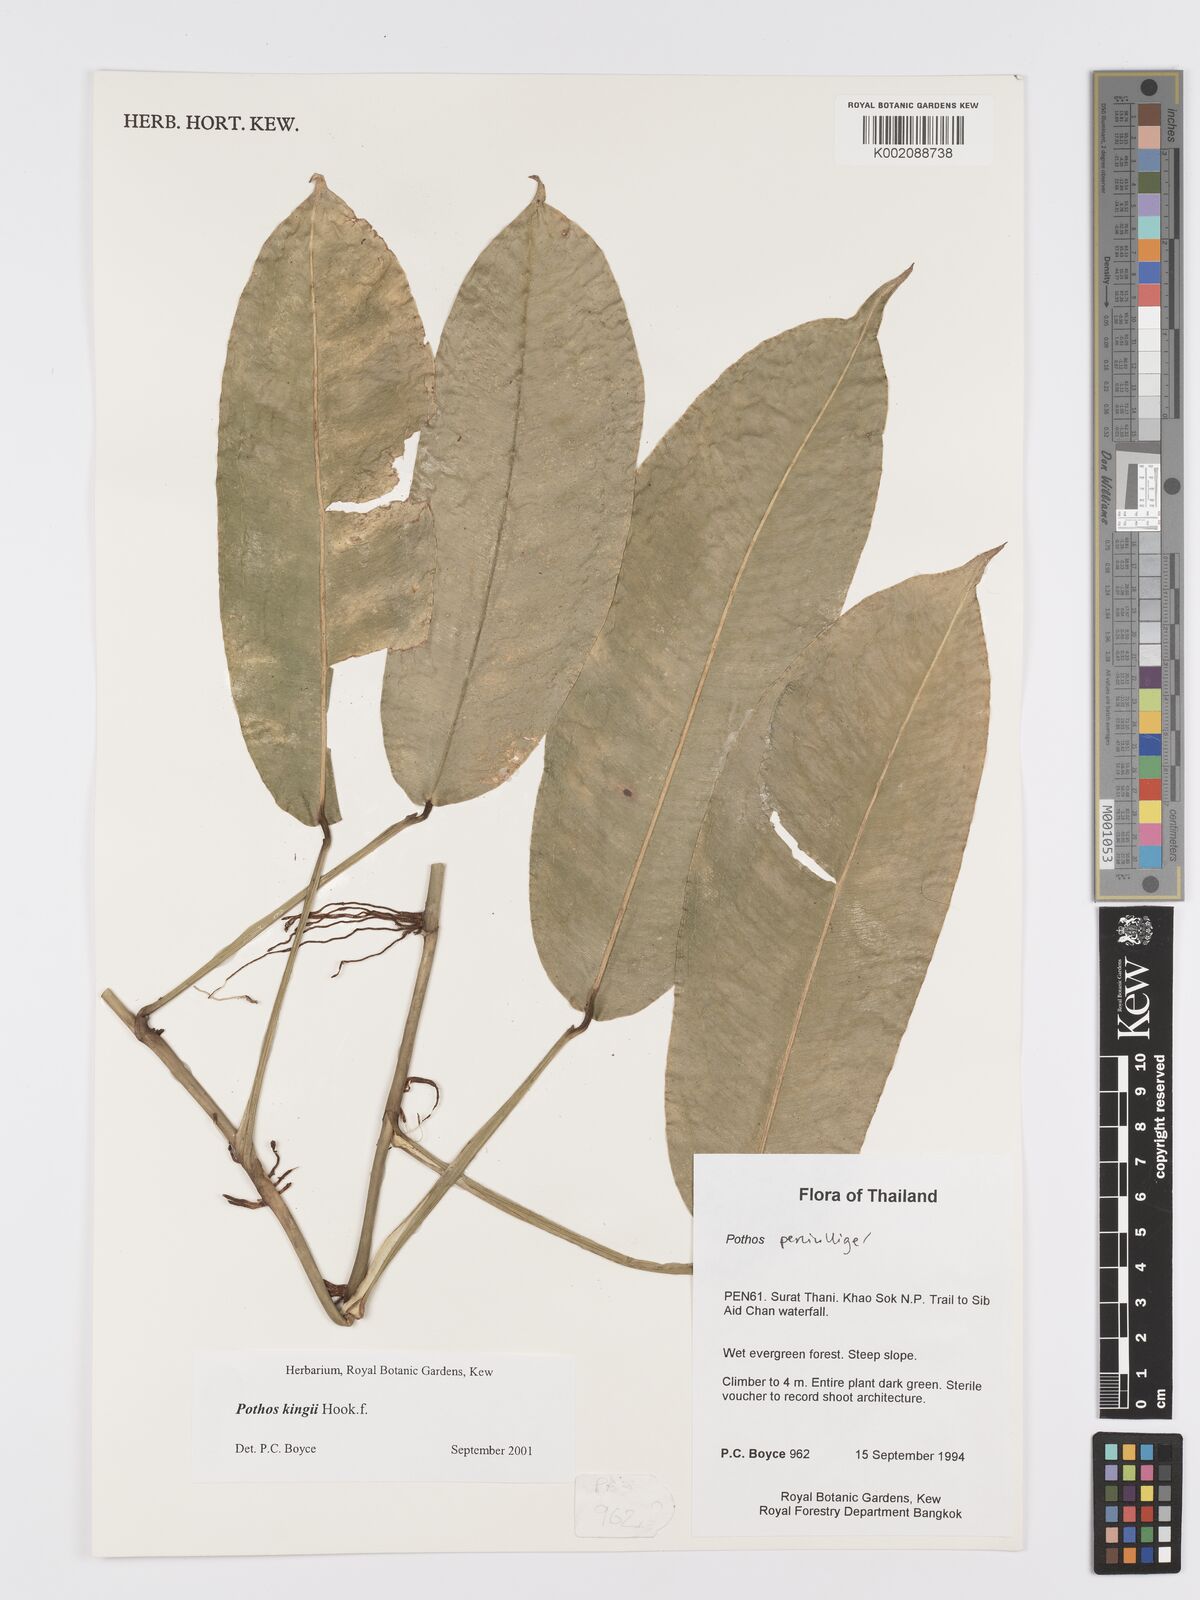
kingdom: Plantae
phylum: Tracheophyta
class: Liliopsida
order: Alismatales
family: Araceae
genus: Pothos
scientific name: Pothos kingii
